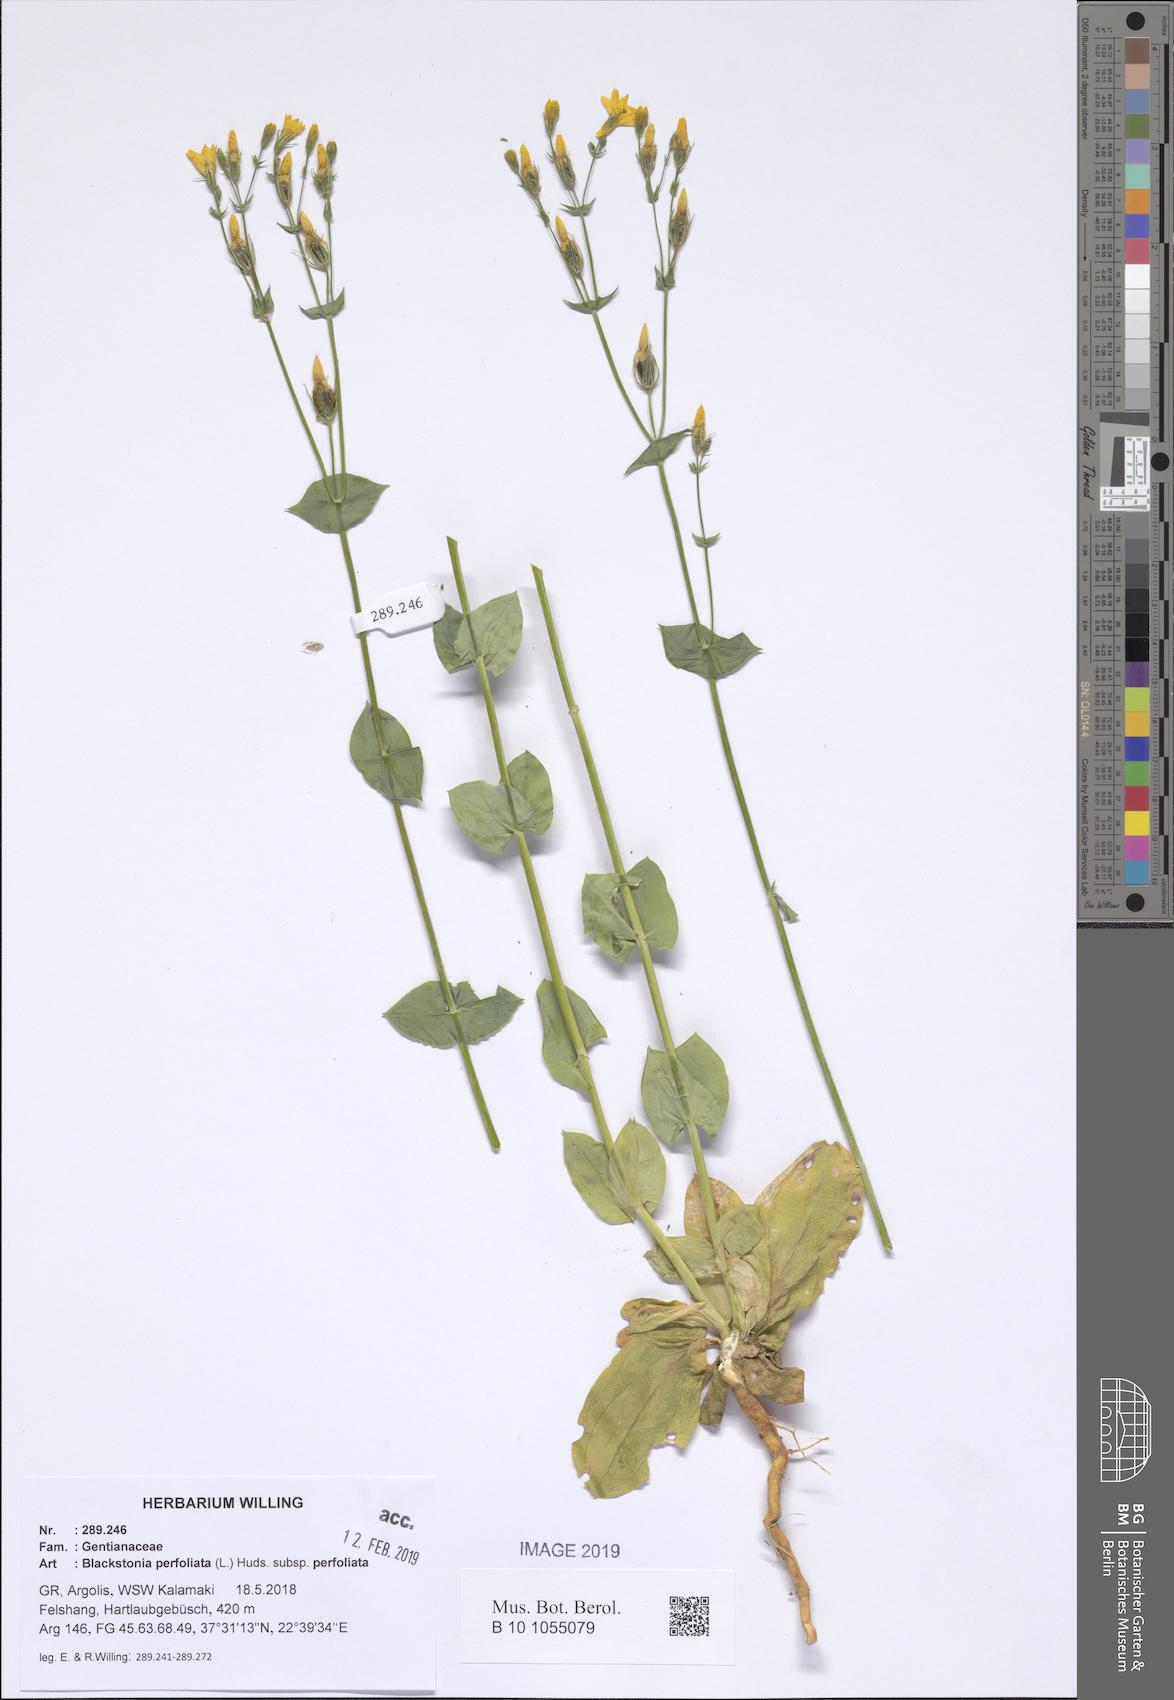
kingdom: Plantae
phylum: Tracheophyta
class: Magnoliopsida
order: Gentianales
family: Gentianaceae
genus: Blackstonia
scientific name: Blackstonia perfoliata
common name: Yellow-wort
